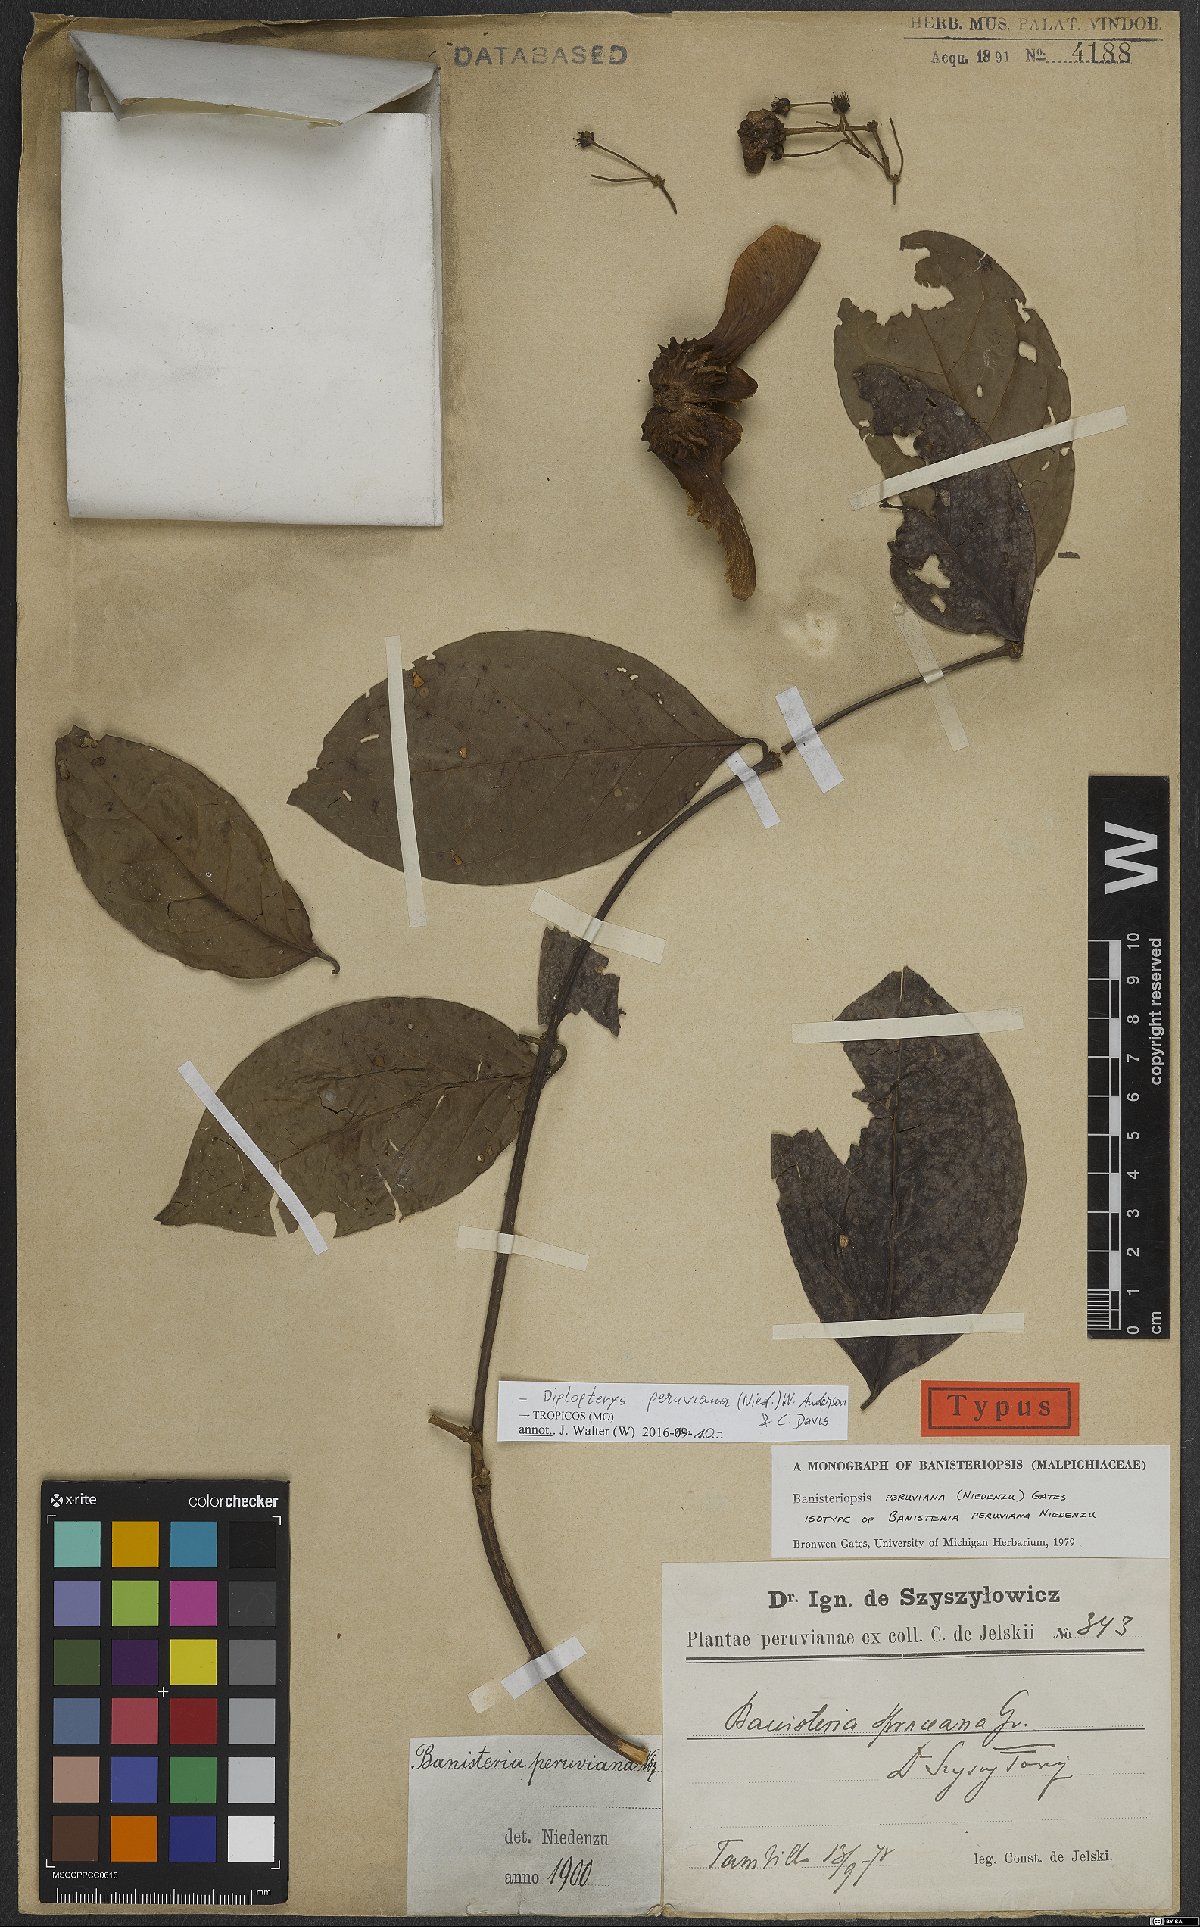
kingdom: Plantae
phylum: Tracheophyta
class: Magnoliopsida
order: Malpighiales
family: Malpighiaceae
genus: Diplopterys
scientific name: Diplopterys peruviana
